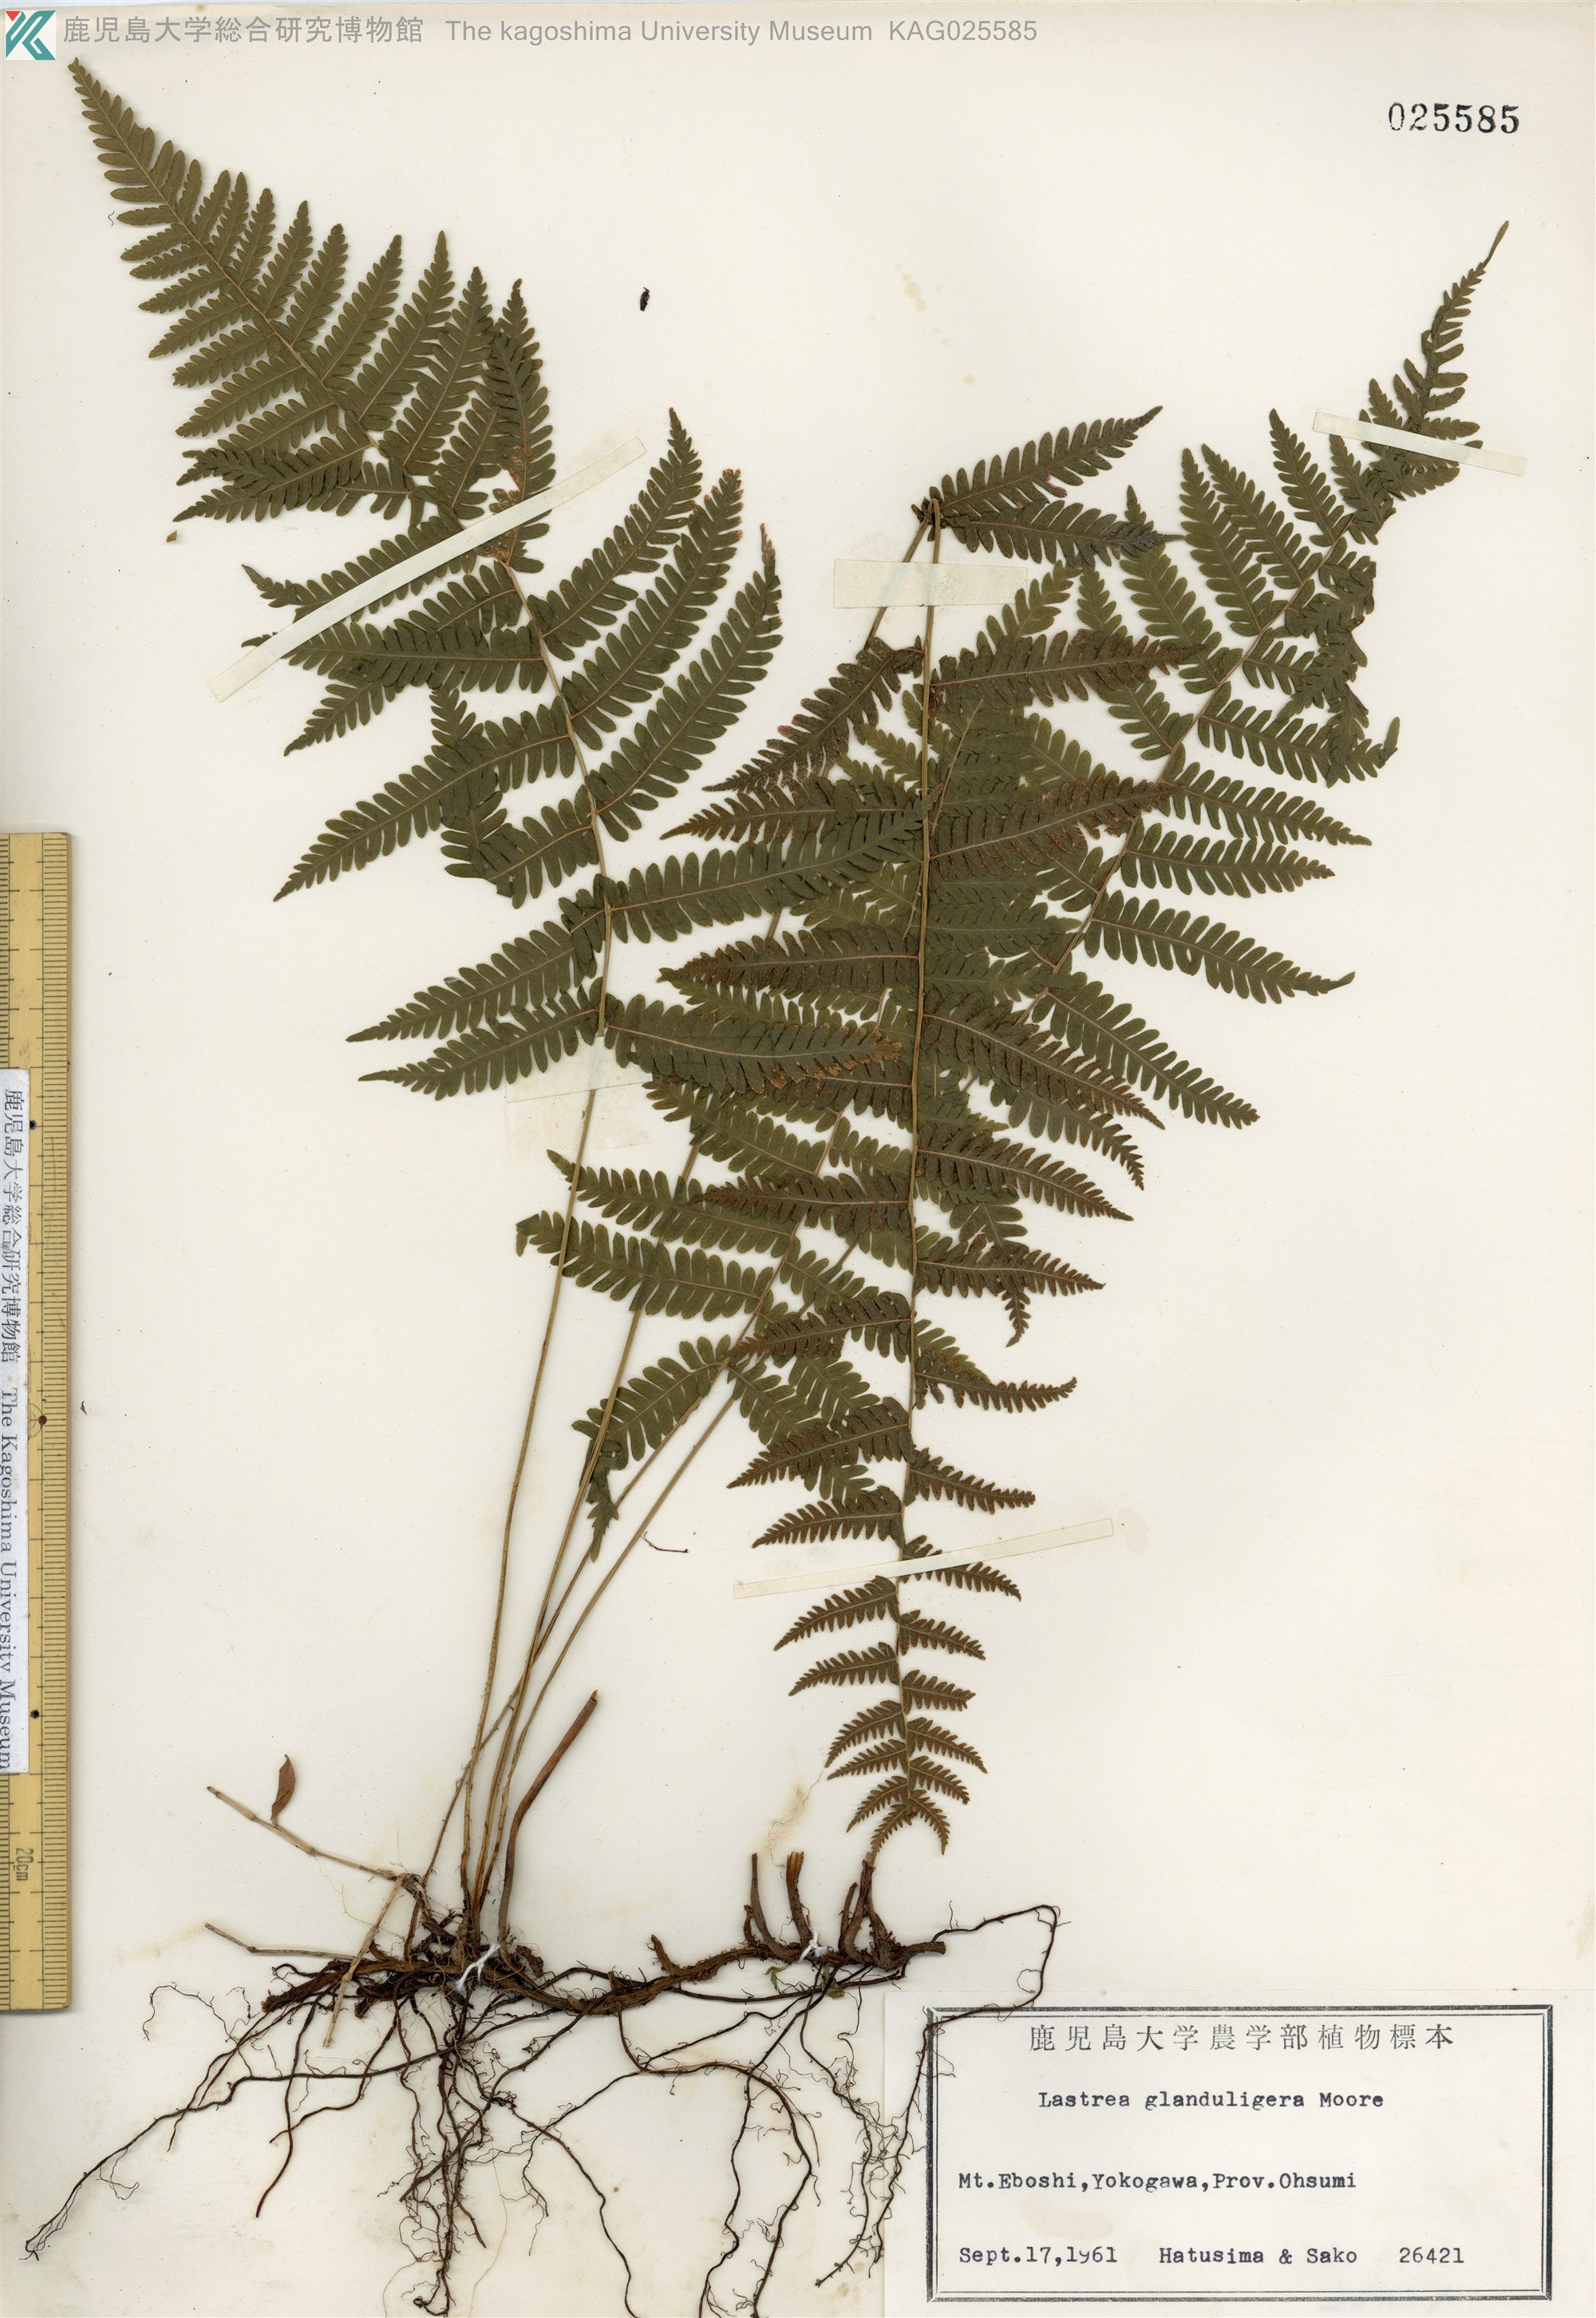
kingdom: Plantae
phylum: Tracheophyta
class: Polypodiopsida
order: Polypodiales
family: Thelypteridaceae
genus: Amauropelta
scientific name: Amauropelta glanduligera
